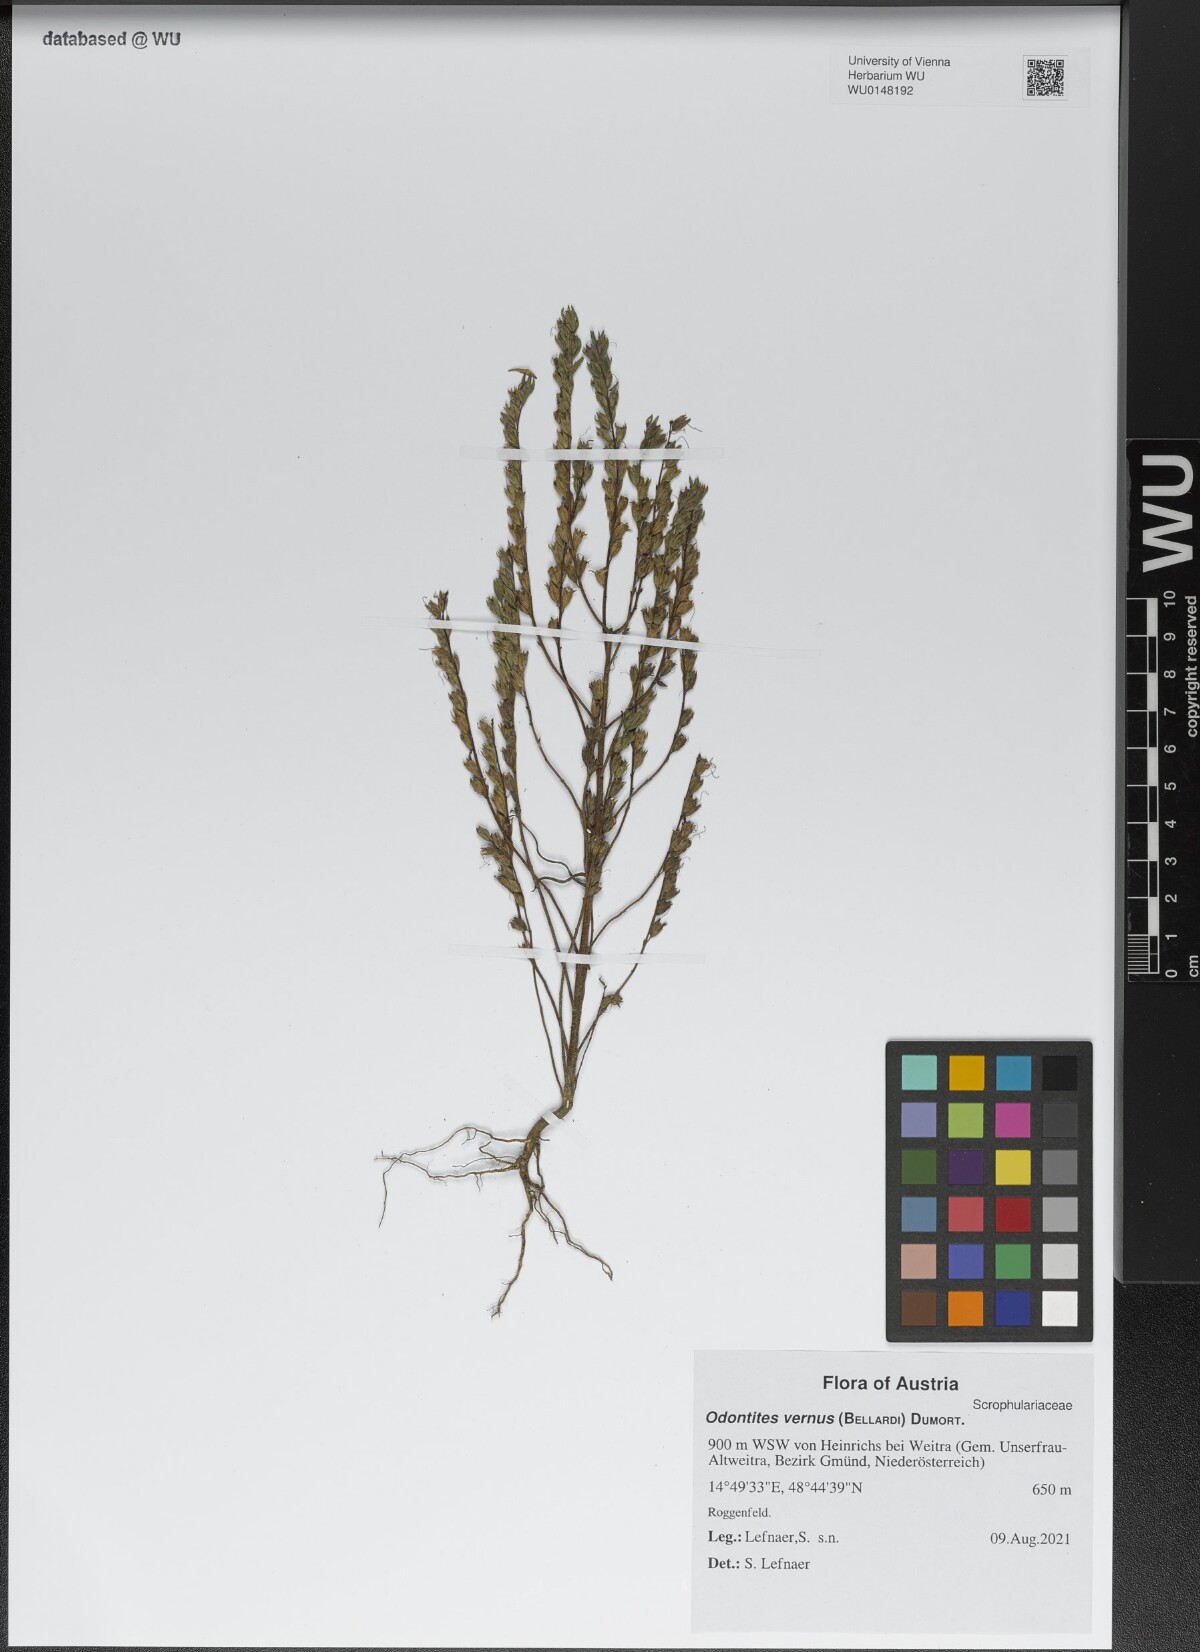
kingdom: Plantae
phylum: Tracheophyta
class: Magnoliopsida
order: Lamiales
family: Orobanchaceae
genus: Odontites
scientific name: Odontites vernus
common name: Red bartsia
